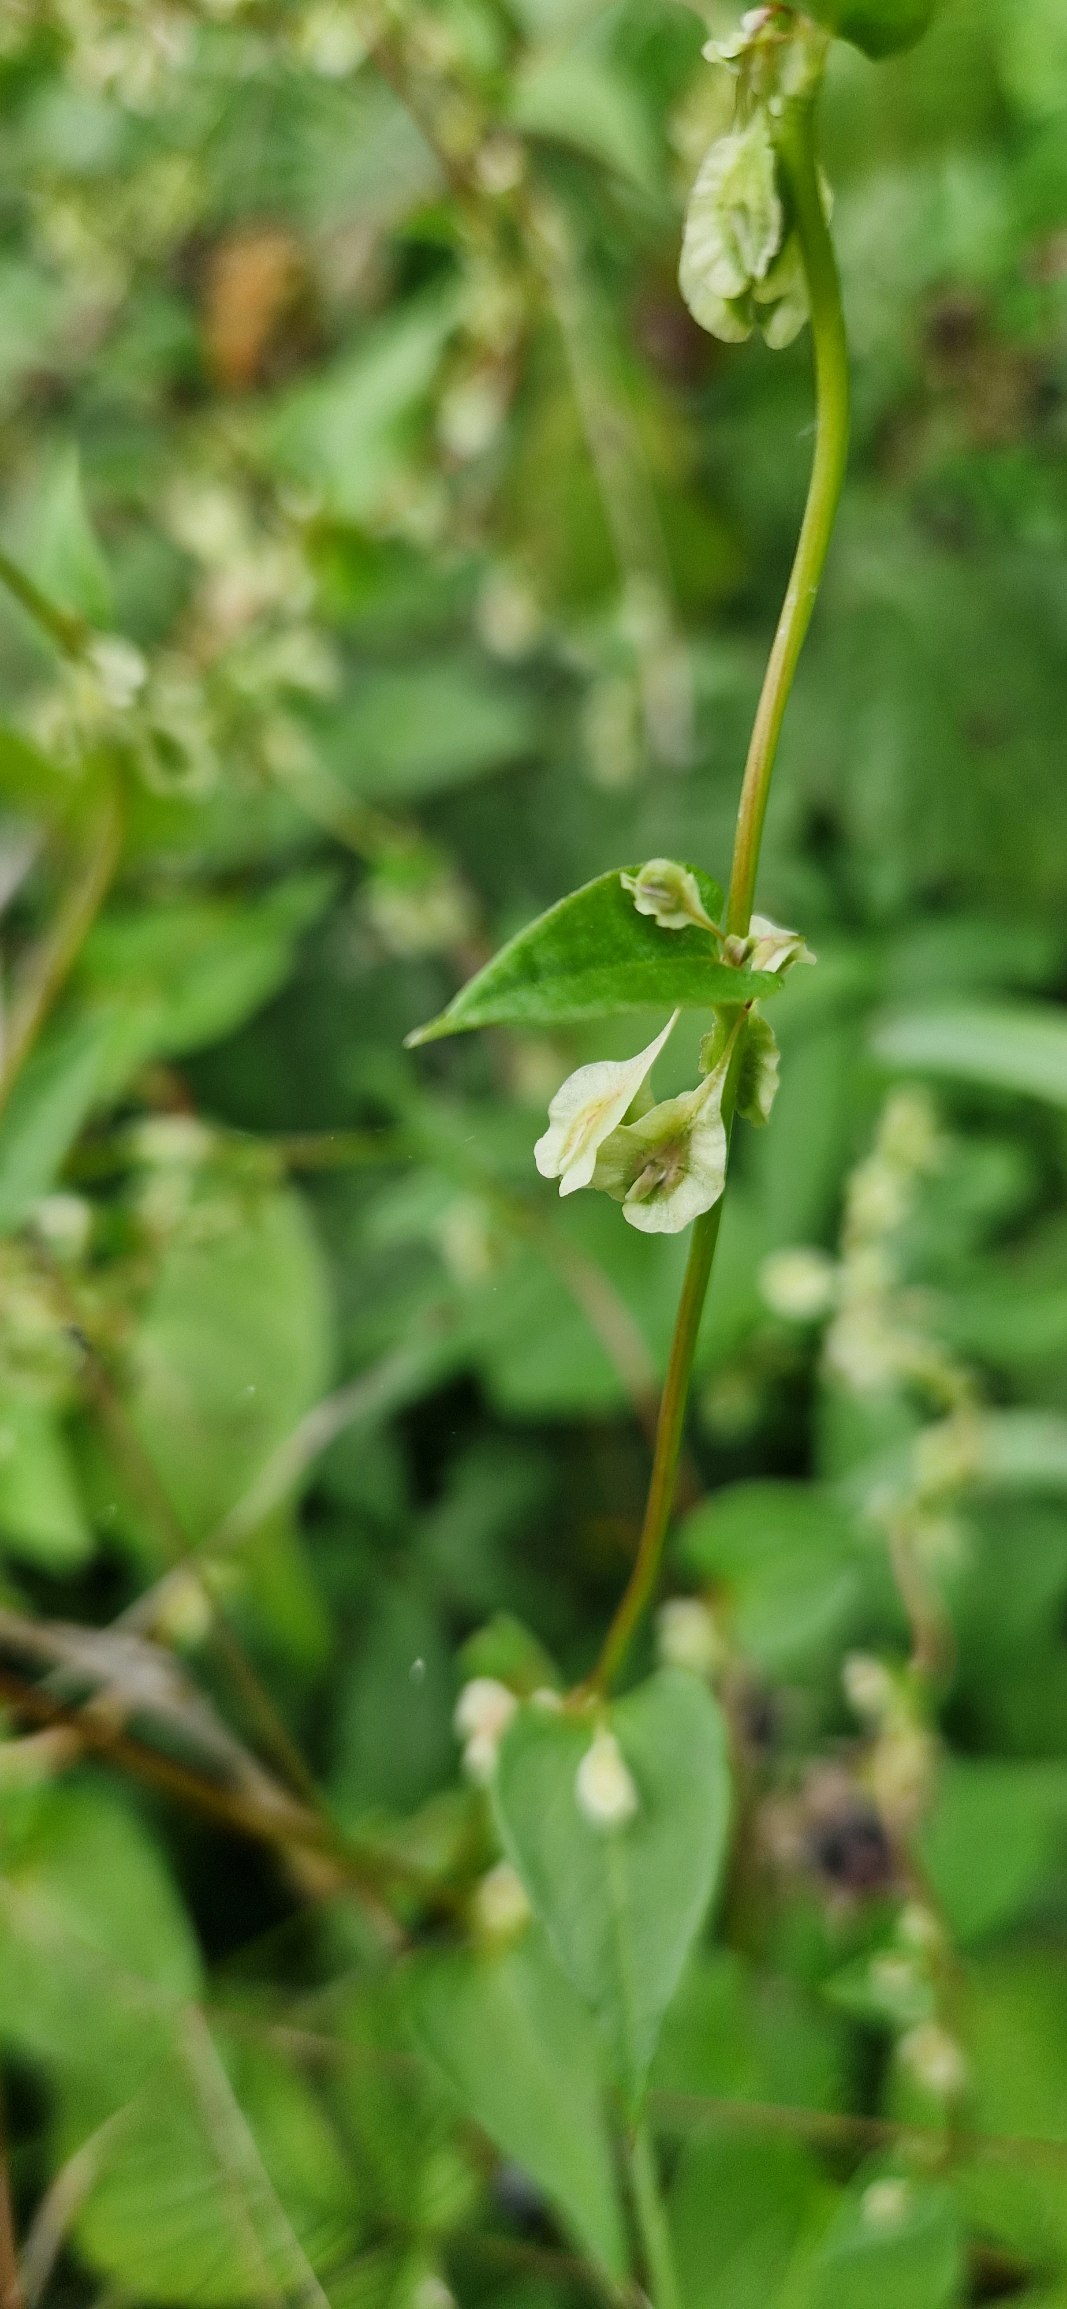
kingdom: Plantae
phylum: Tracheophyta
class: Magnoliopsida
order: Caryophyllales
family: Polygonaceae
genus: Fallopia
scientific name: Fallopia dumetorum
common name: Vinge-pileurt
